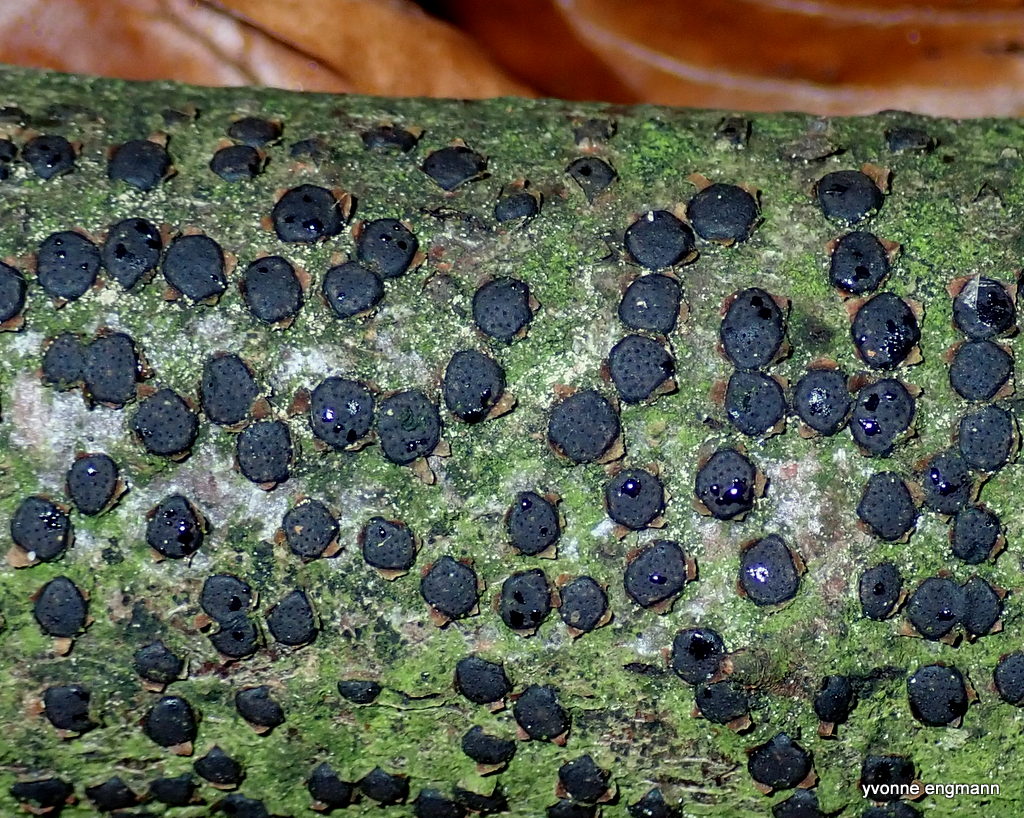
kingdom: Fungi
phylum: Ascomycota
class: Sordariomycetes
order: Xylariales
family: Diatrypaceae
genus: Diatrype
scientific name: Diatrype disciformis
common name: kant-kulskorpe
